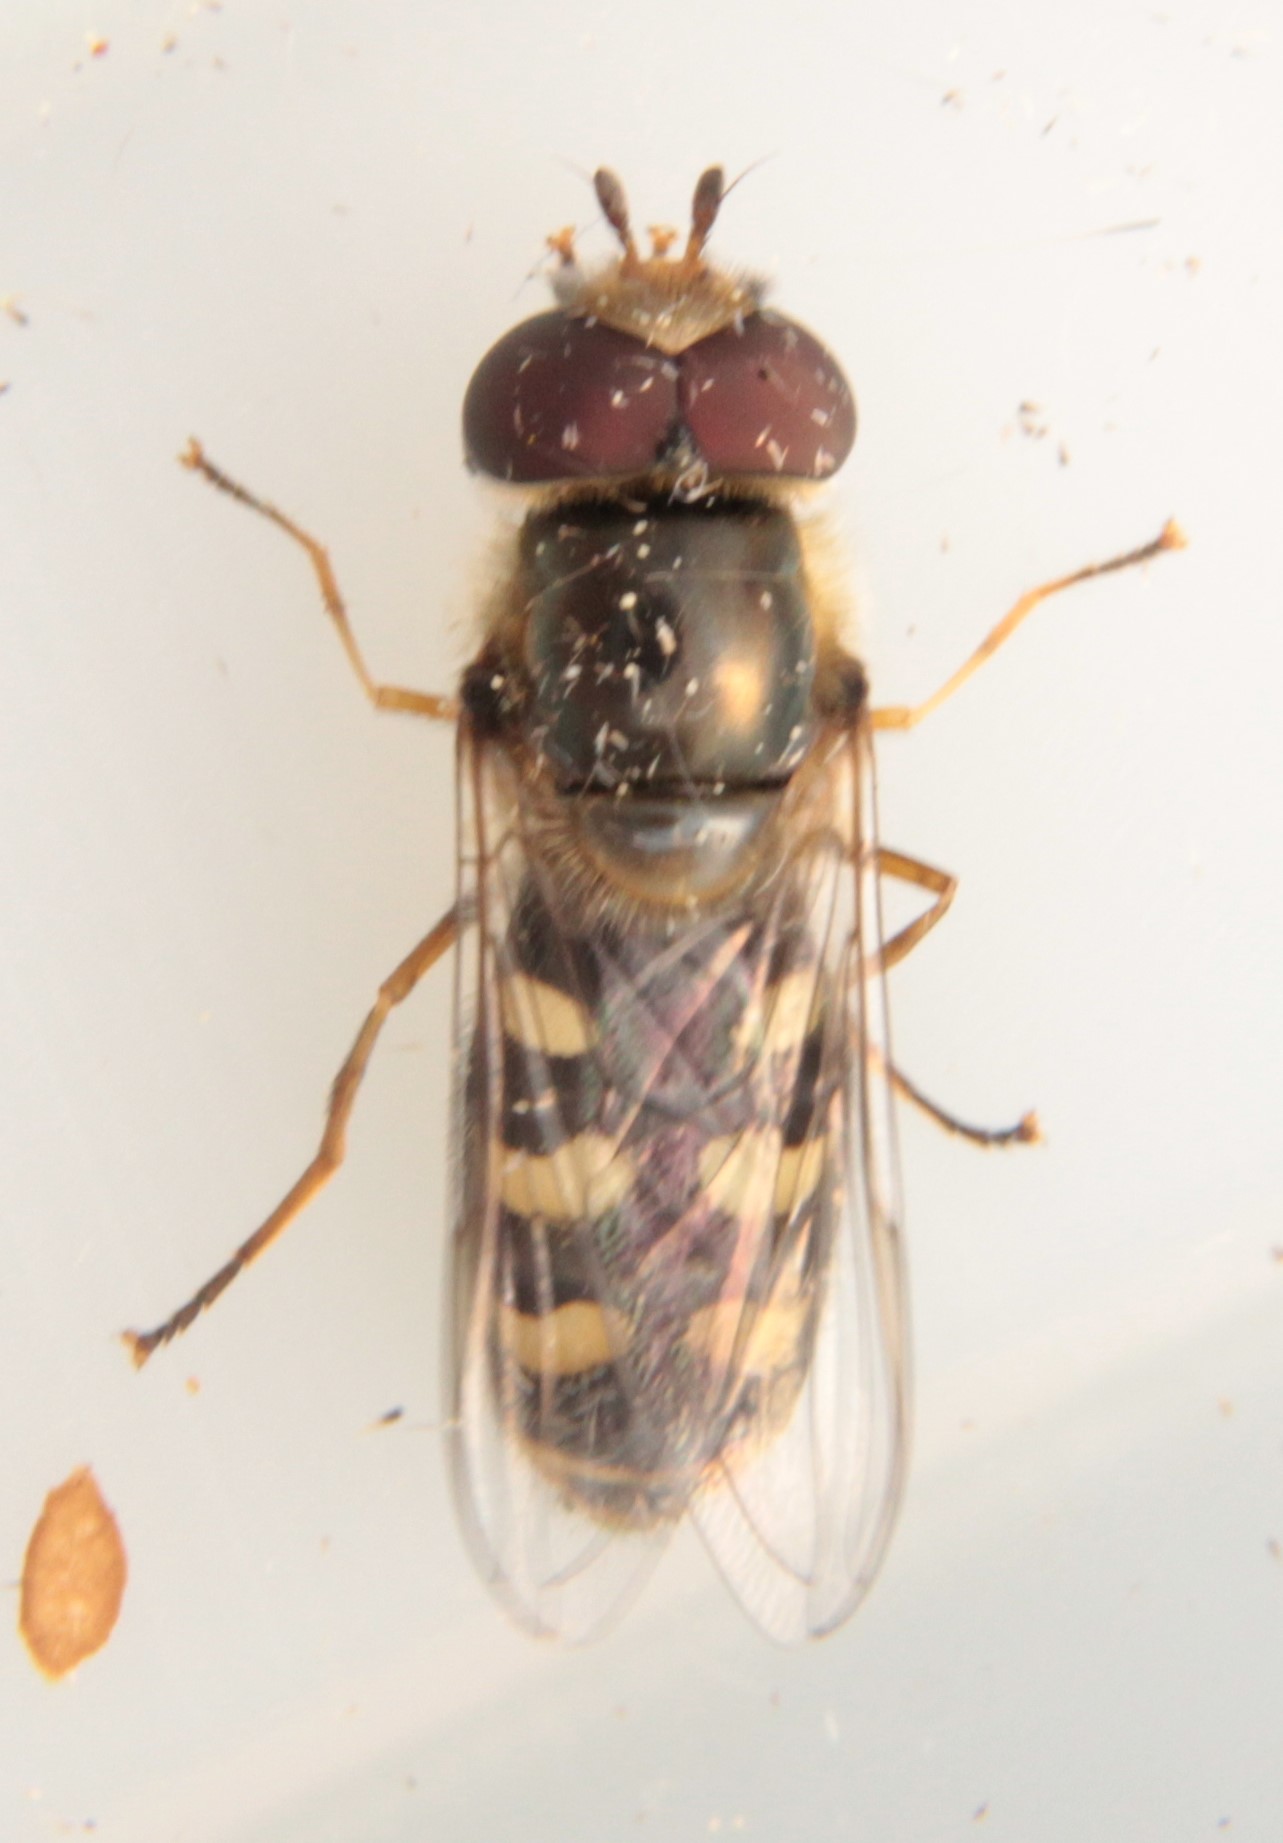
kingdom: Animalia
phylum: Arthropoda
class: Insecta
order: Diptera
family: Syrphidae
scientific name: Syrphidae
